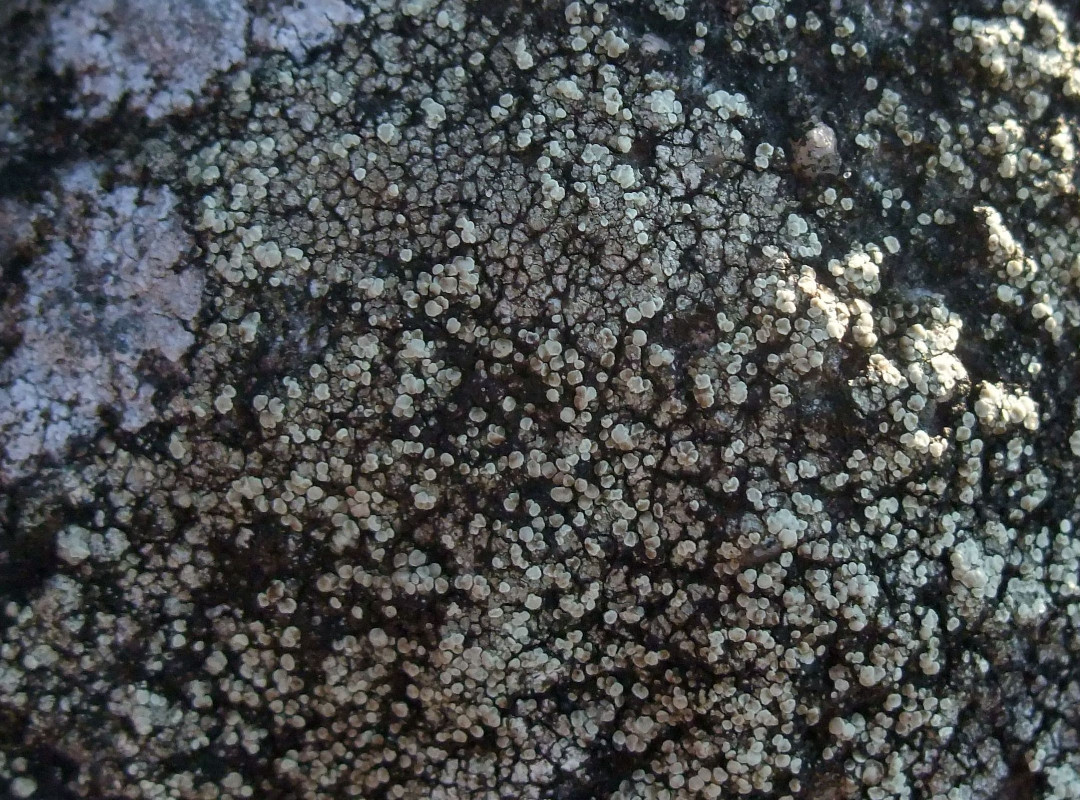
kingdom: Fungi
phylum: Ascomycota
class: Lecanoromycetes
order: Lecanorales
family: Lecanoraceae
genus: Lecanora
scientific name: Lecanora polytropa
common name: bleggrøn kantskivelav
